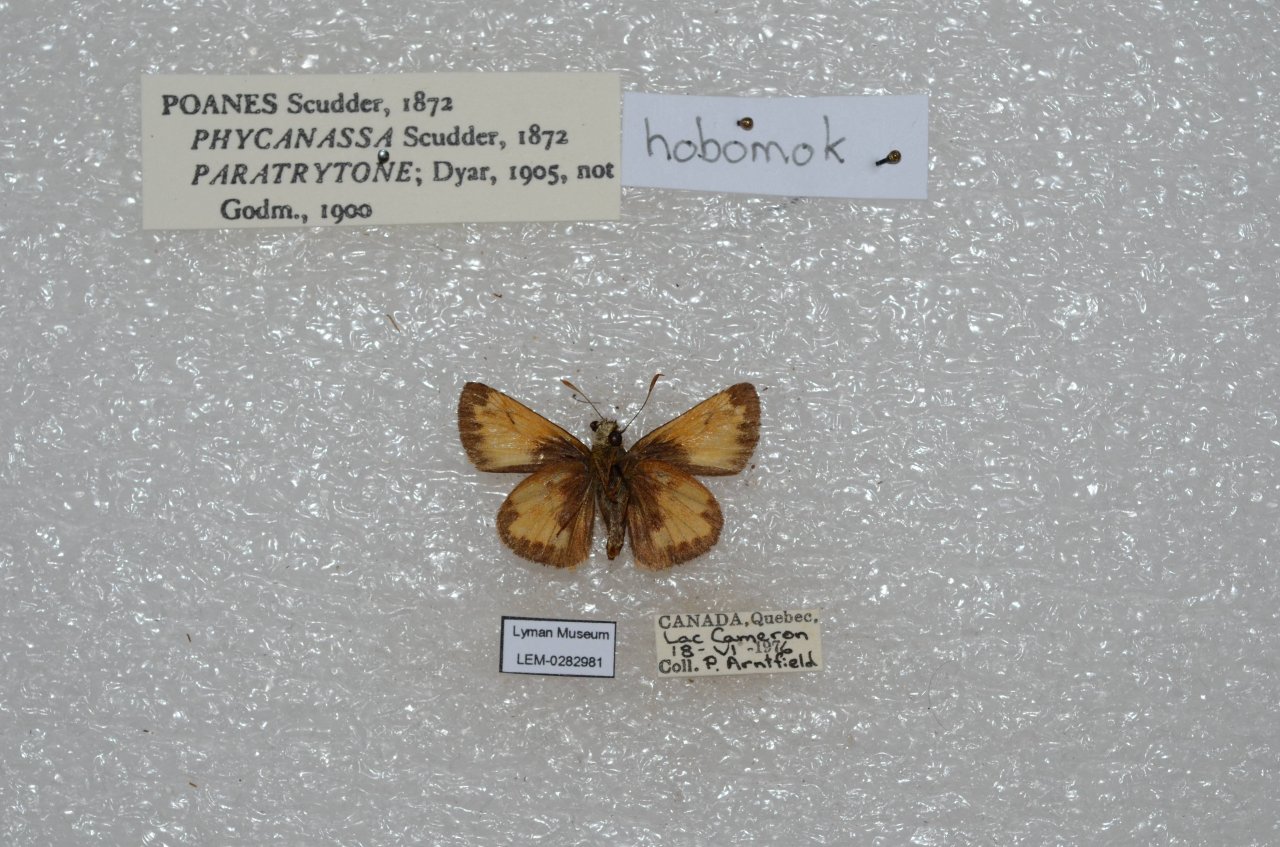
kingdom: Animalia
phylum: Arthropoda
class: Insecta
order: Lepidoptera
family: Hesperiidae
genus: Lon
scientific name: Lon hobomok
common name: Hobomok Skipper
